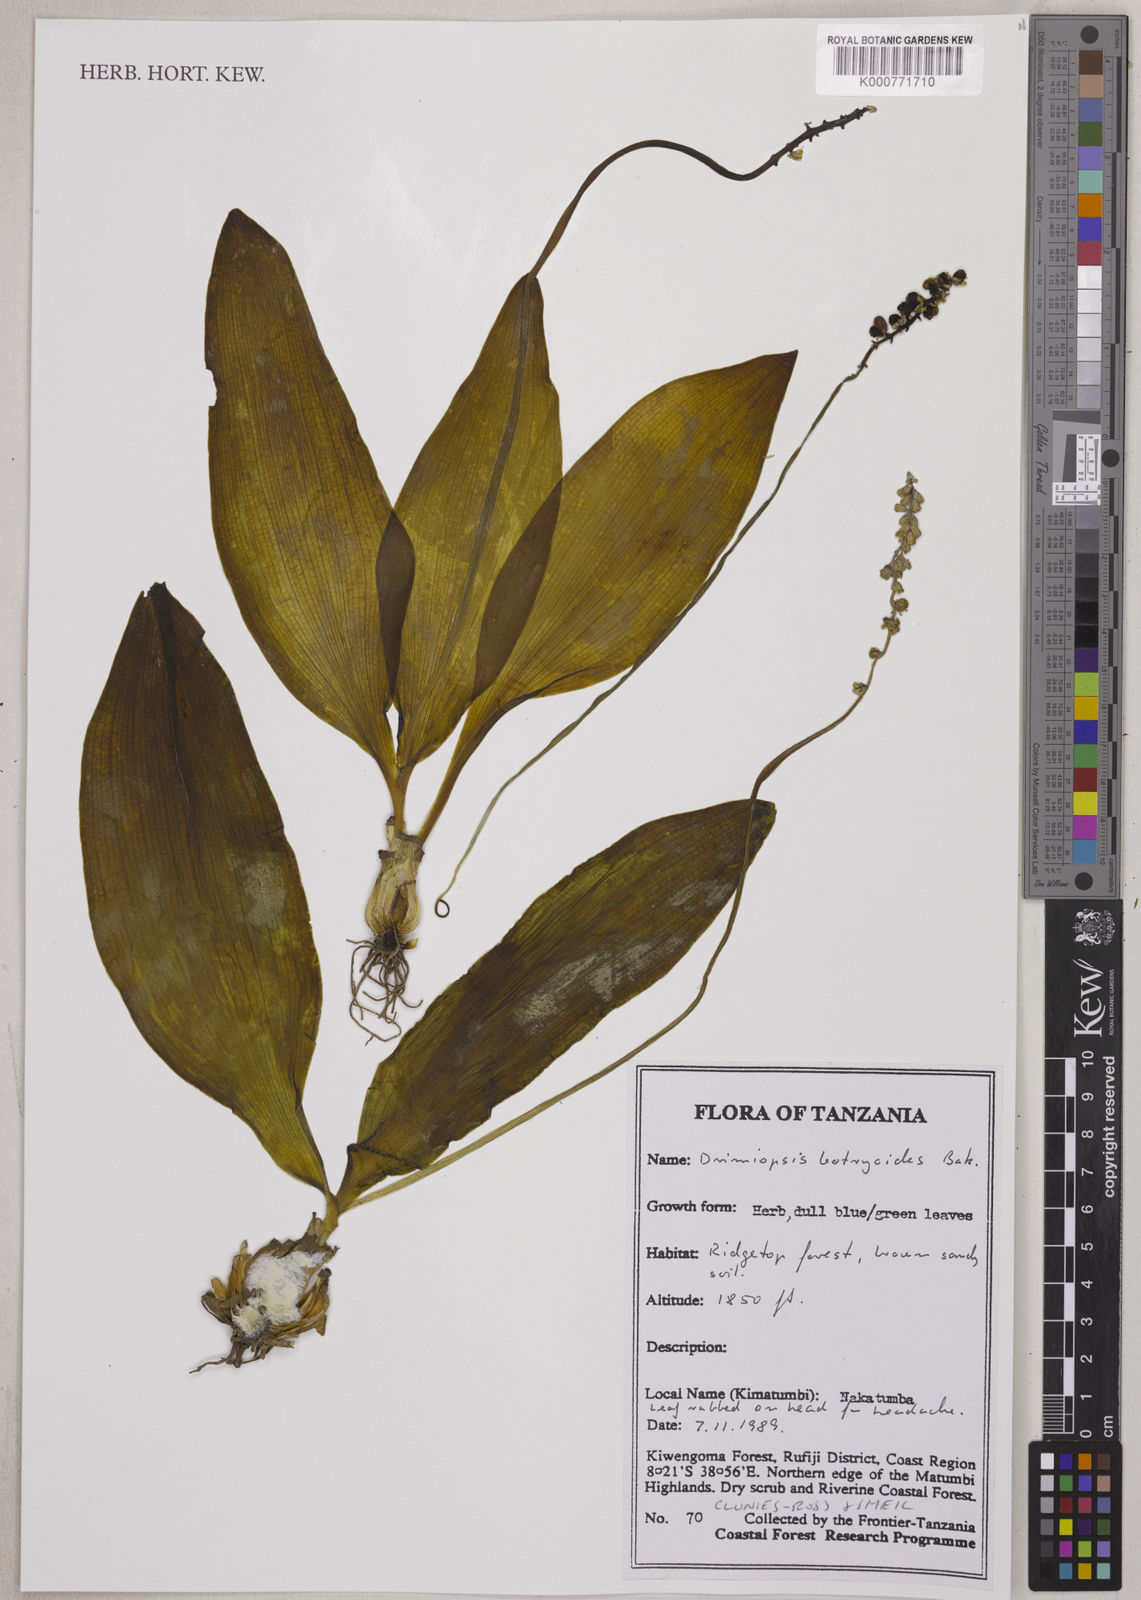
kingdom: Plantae
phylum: Tracheophyta
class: Liliopsida
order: Asparagales
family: Asparagaceae
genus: Drimiopsis
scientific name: Drimiopsis botryoides
